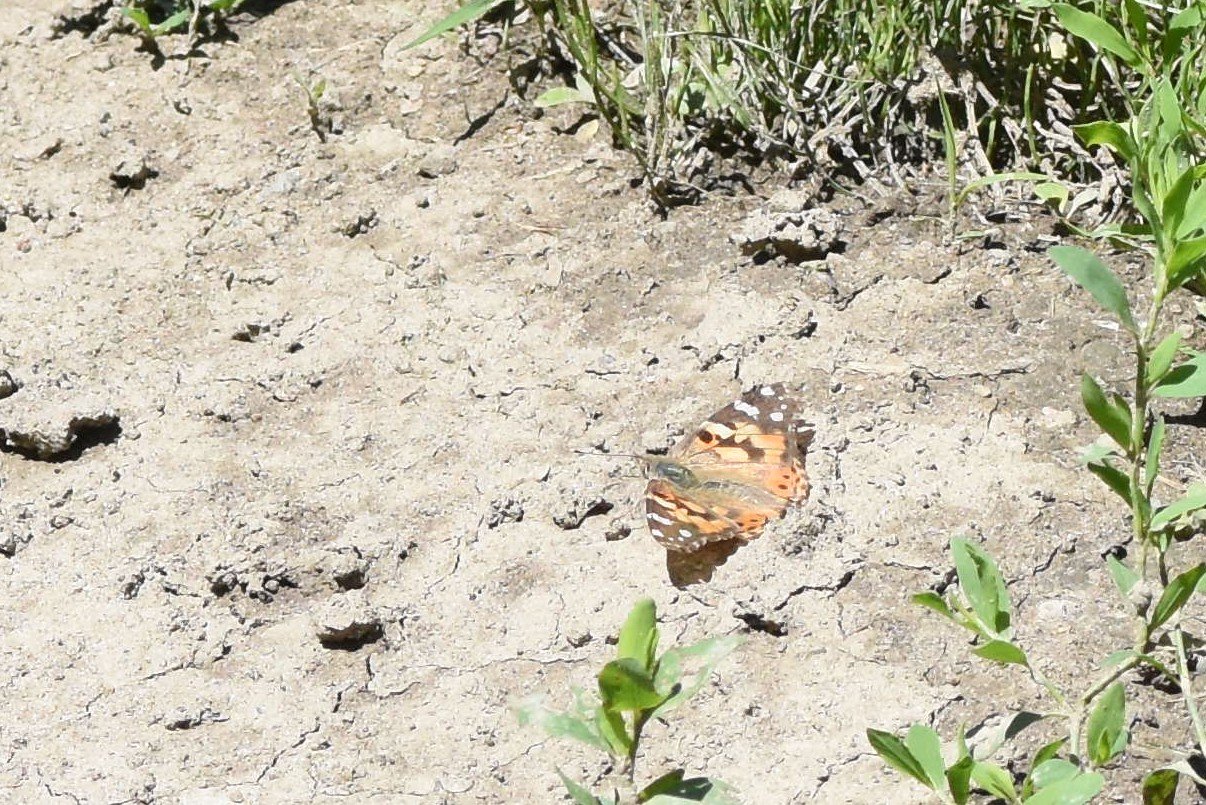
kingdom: Animalia
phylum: Arthropoda
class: Insecta
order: Lepidoptera
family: Nymphalidae
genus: Vanessa
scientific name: Vanessa cardui
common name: Painted Lady
